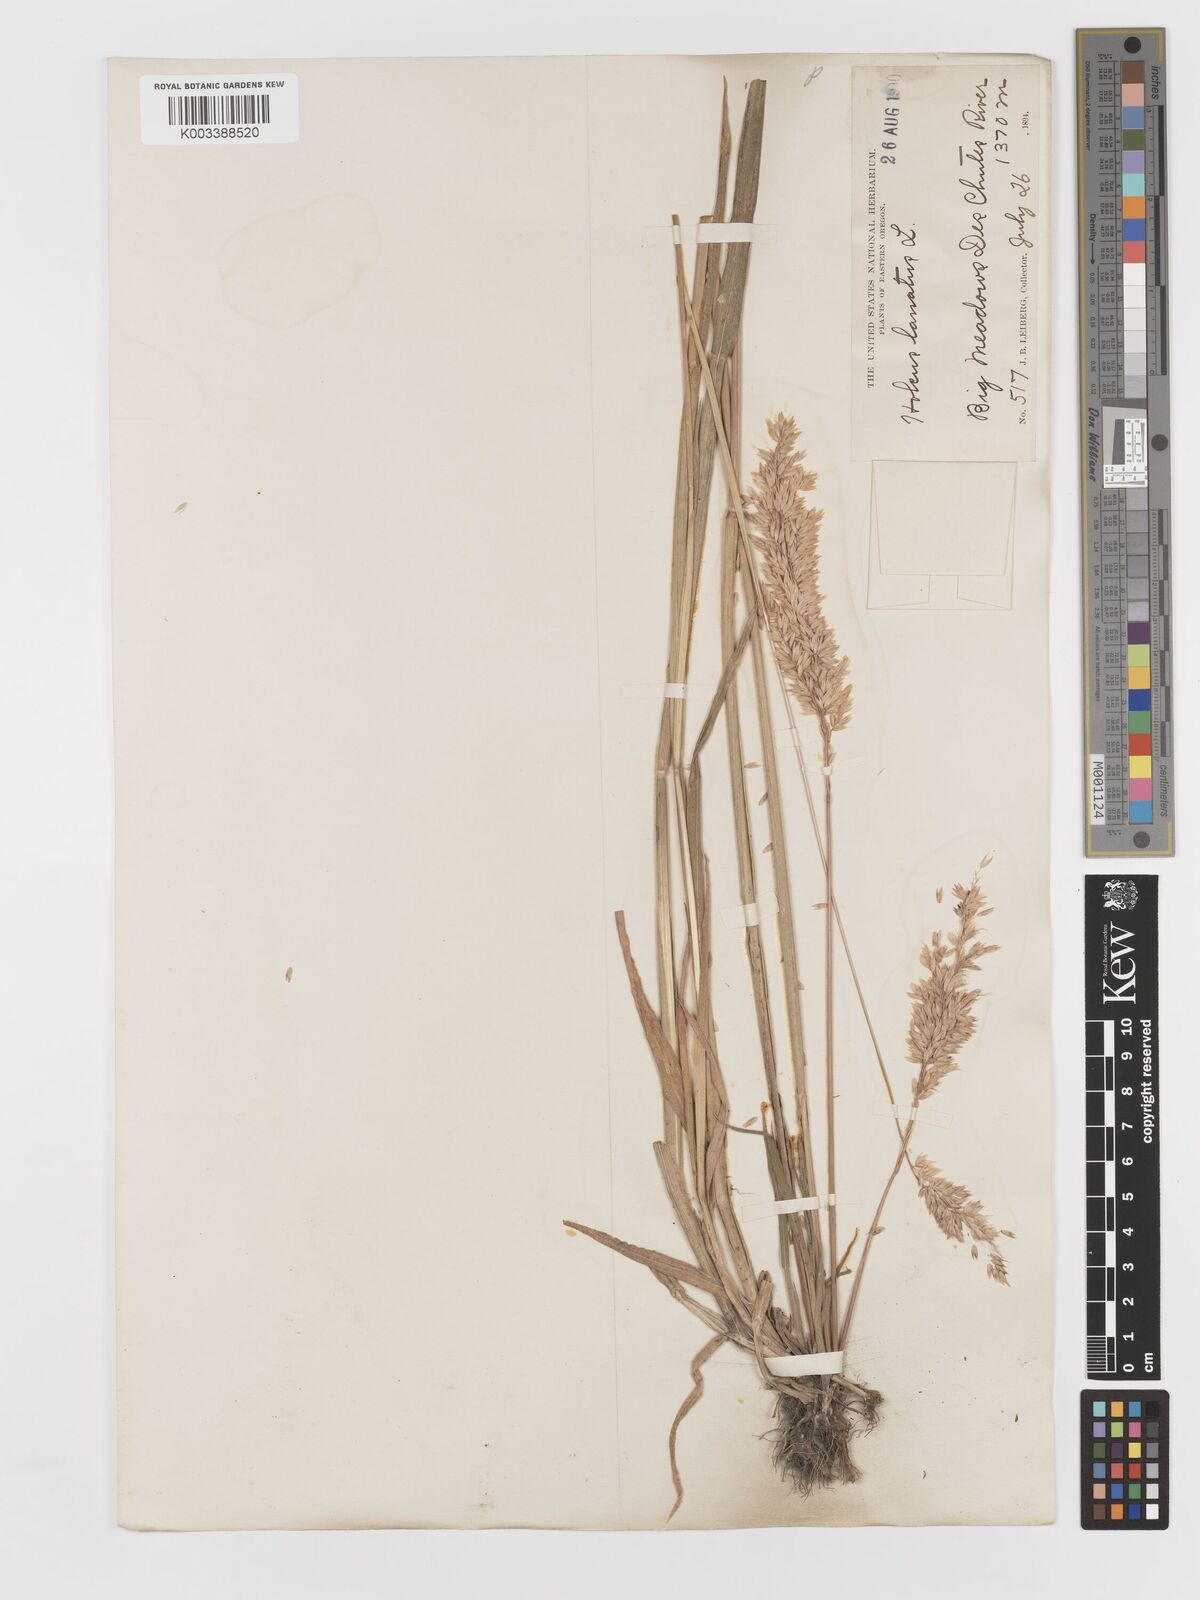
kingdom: Plantae
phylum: Tracheophyta
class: Liliopsida
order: Poales
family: Poaceae
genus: Holcus
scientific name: Holcus lanatus
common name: Yorkshire-fog
